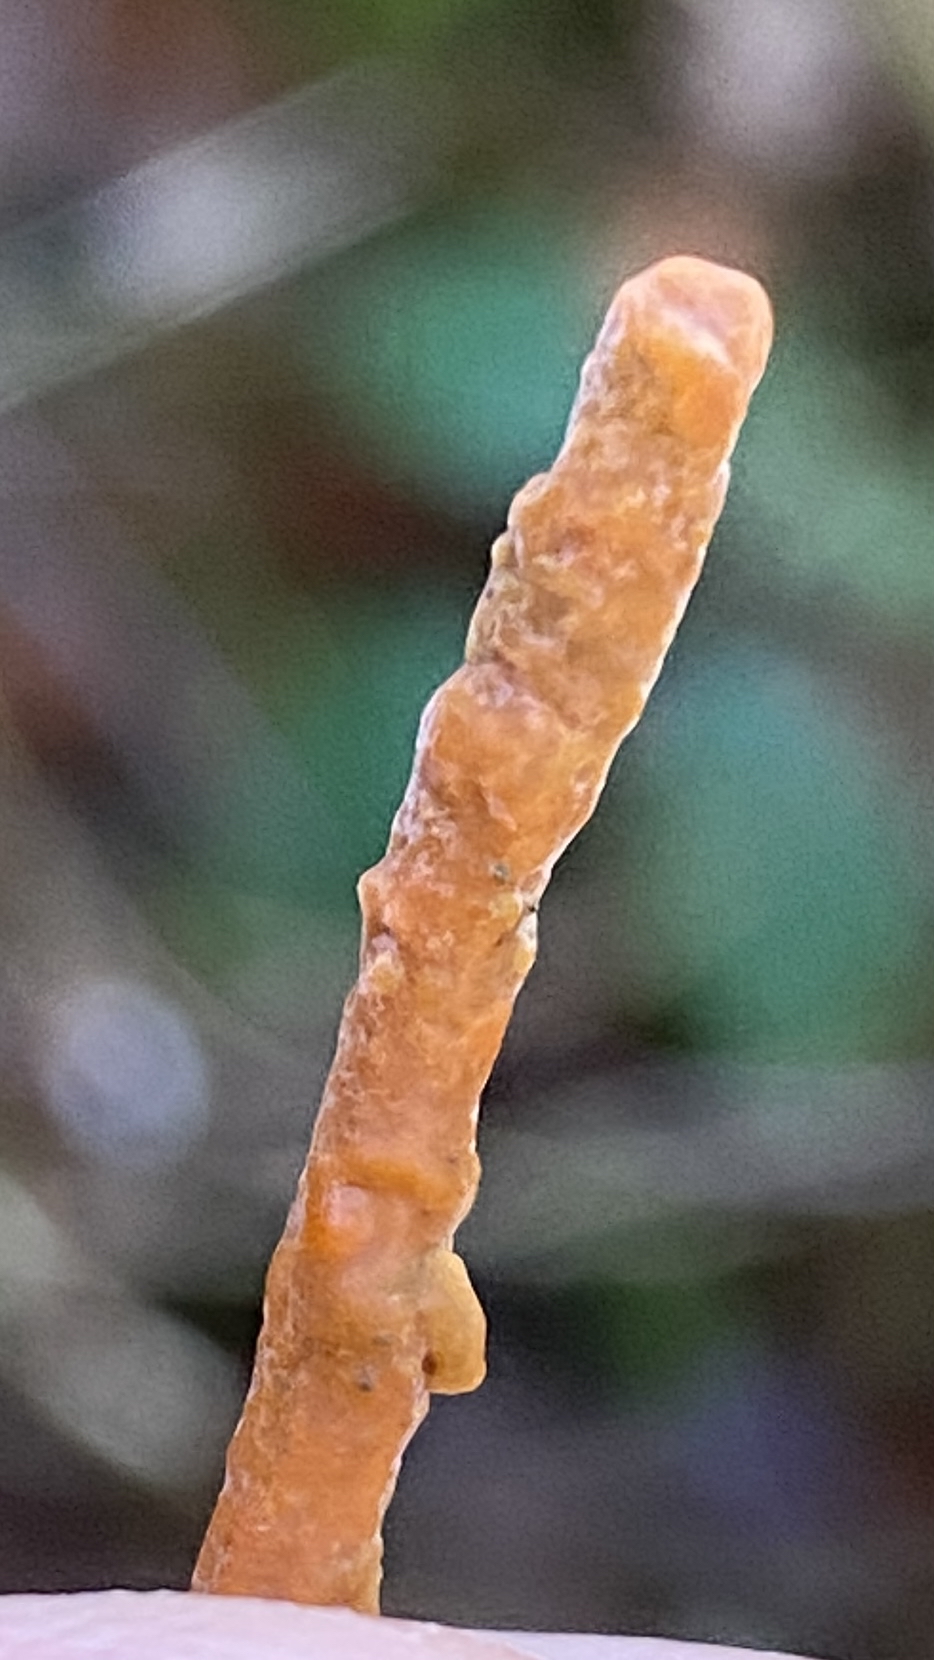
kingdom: Fungi
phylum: Basidiomycota
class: Agaricomycetes
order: Russulales
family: Peniophoraceae
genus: Peniophora
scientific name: Peniophora incarnata
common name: laksefarvet voksskind
